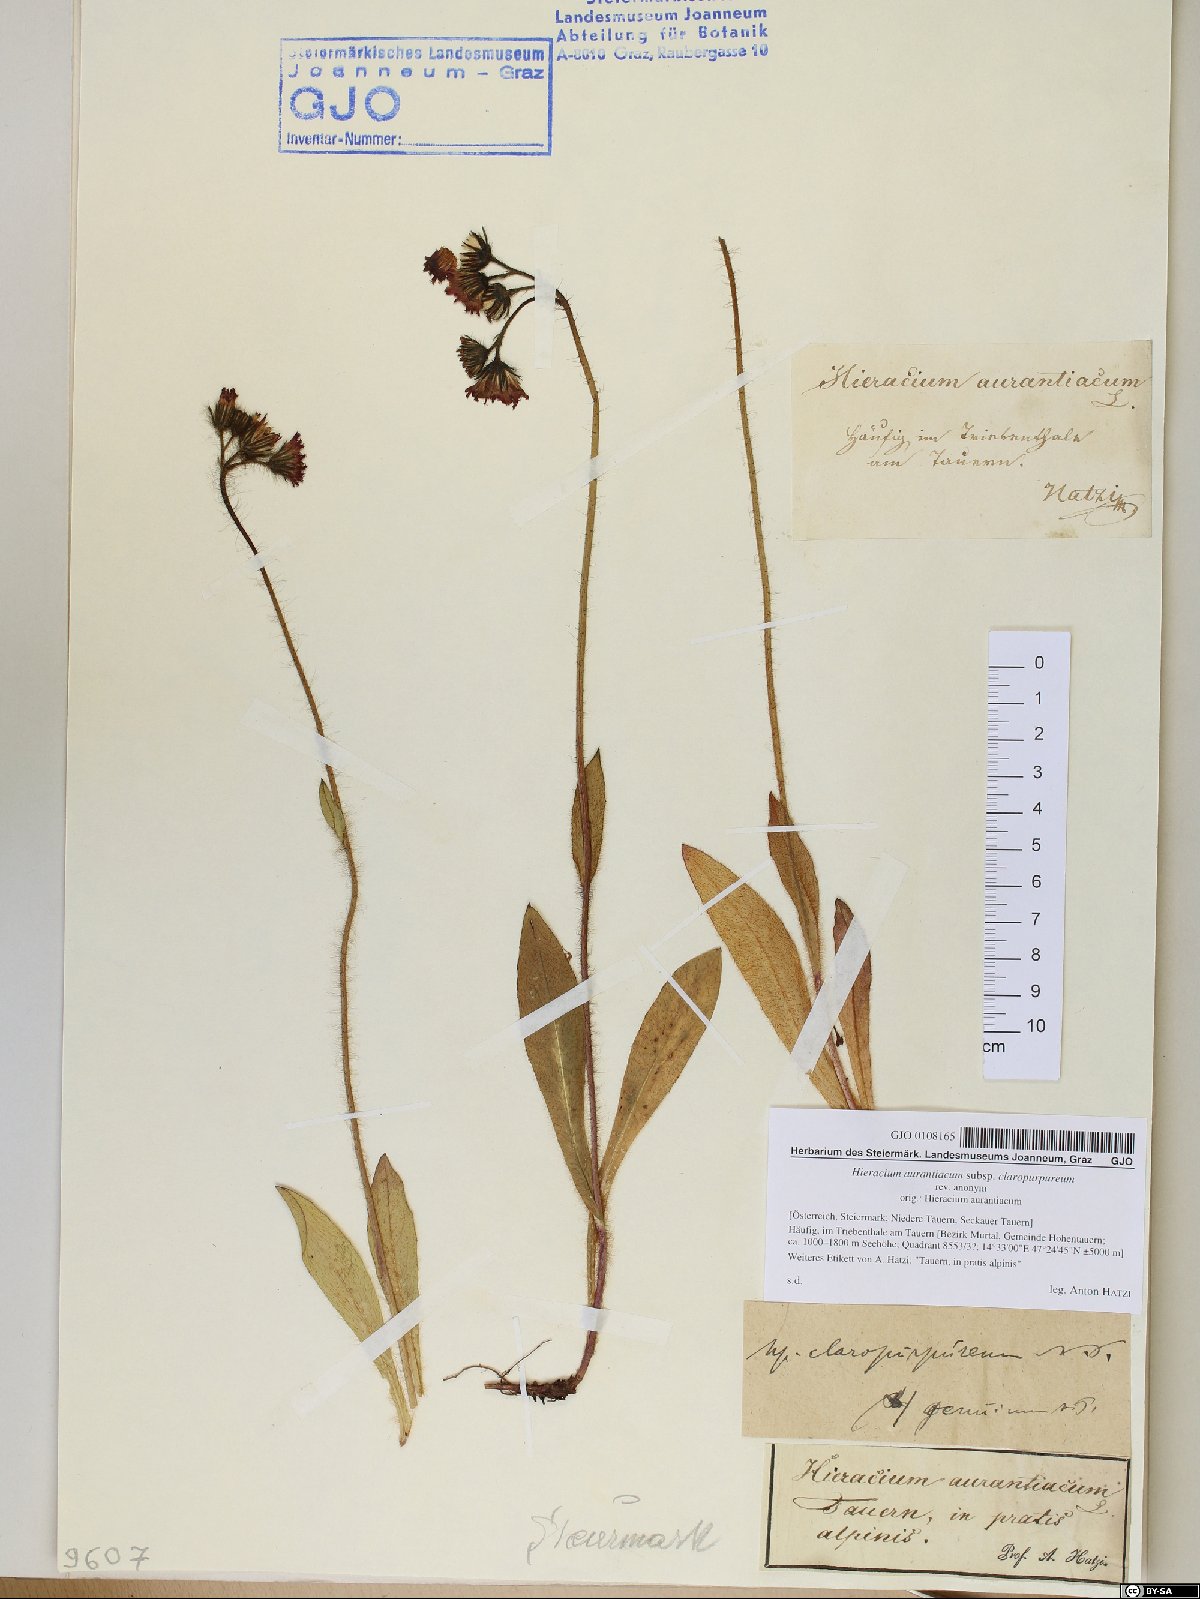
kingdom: Plantae
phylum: Tracheophyta
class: Magnoliopsida
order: Asterales
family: Asteraceae
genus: Pilosella
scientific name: Pilosella aurantiaca
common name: Fox-and-cubs
